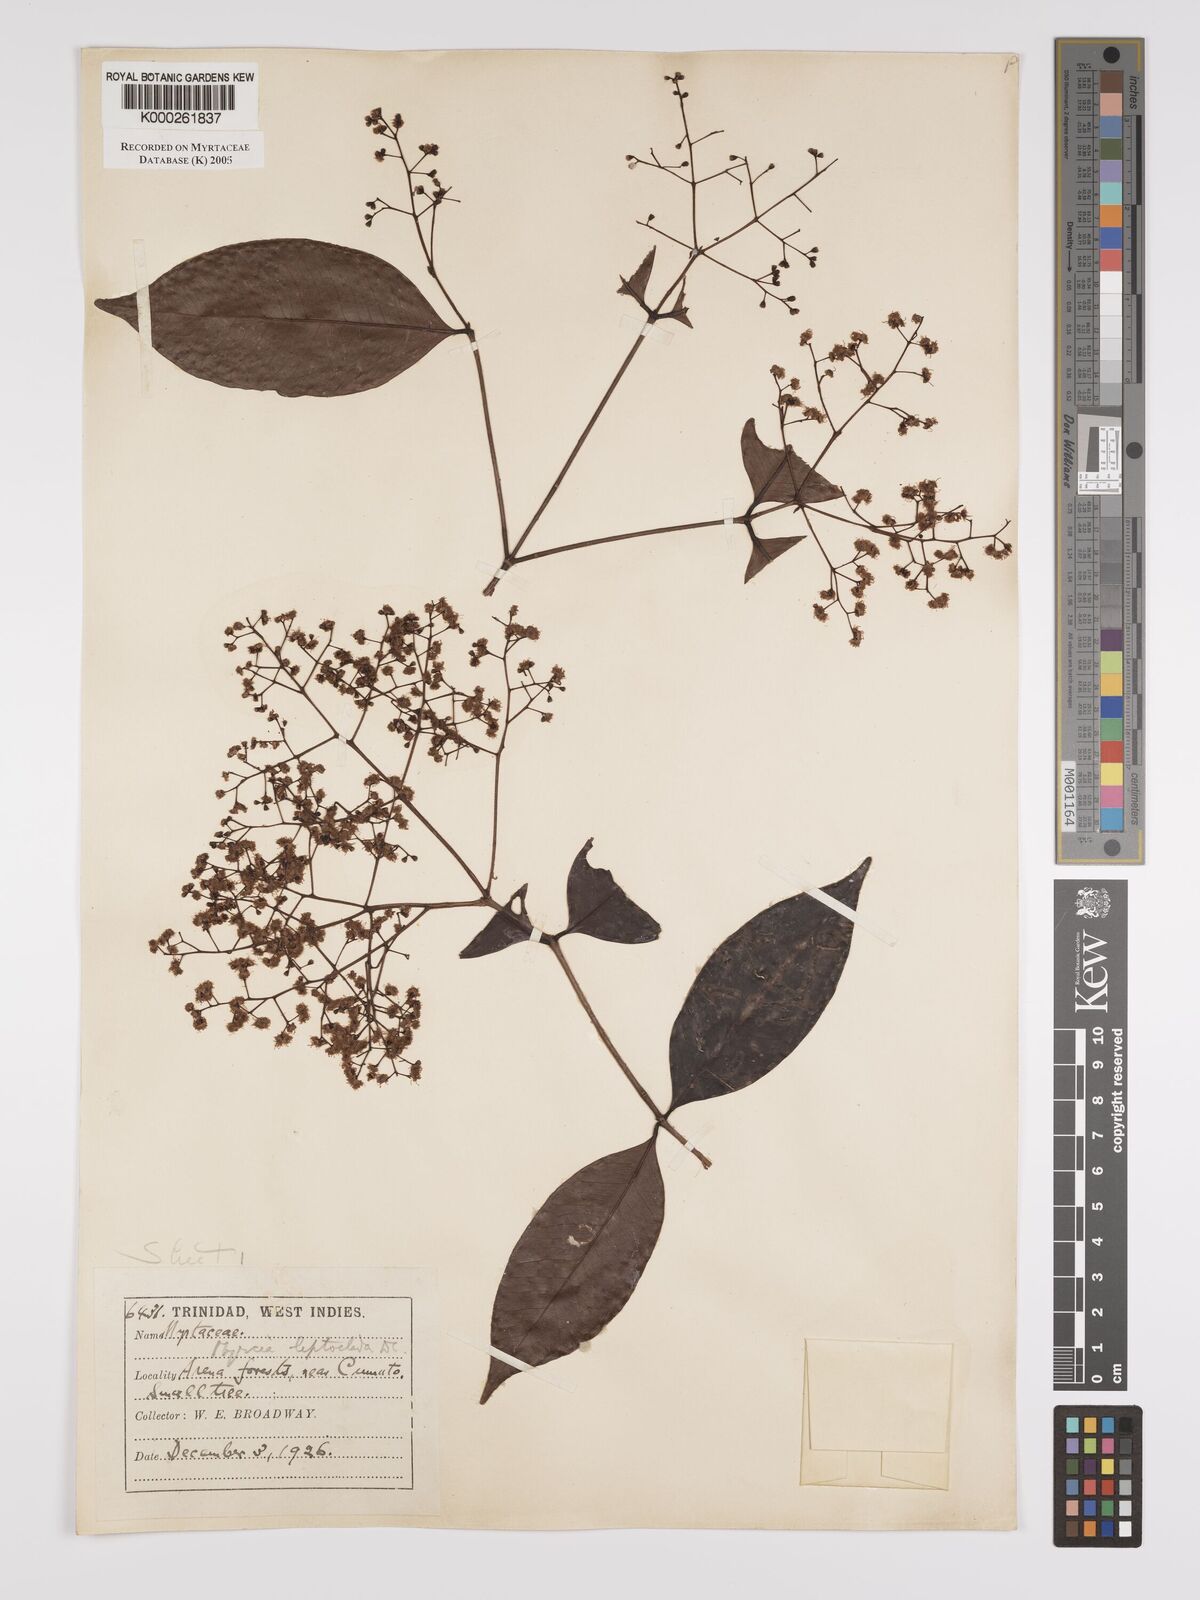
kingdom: Plantae
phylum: Tracheophyta
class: Magnoliopsida
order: Myrtales
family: Myrtaceae
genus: Myrcia
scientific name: Myrcia amazonica
